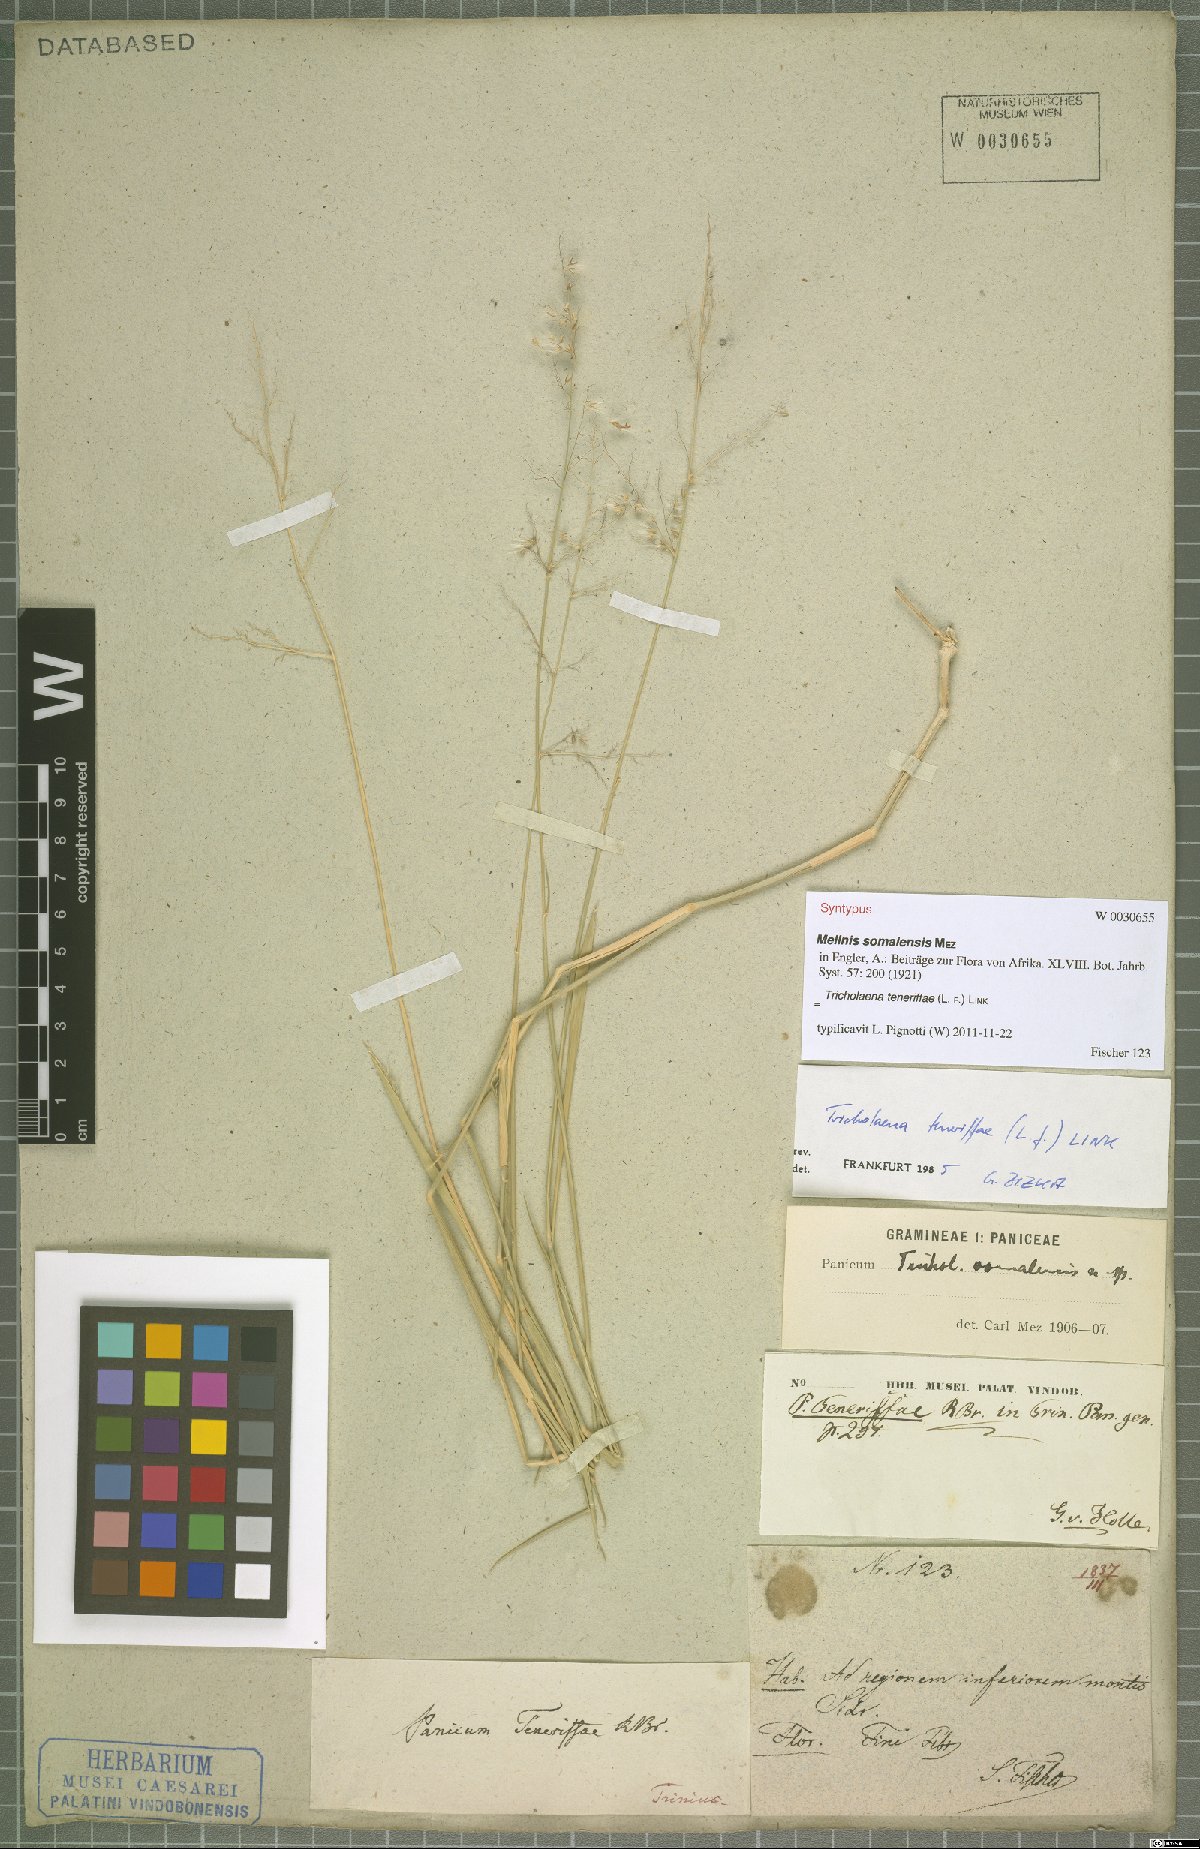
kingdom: Plantae
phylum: Tracheophyta
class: Liliopsida
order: Poales
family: Poaceae
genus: Tricholaena
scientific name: Tricholaena teneriffae
